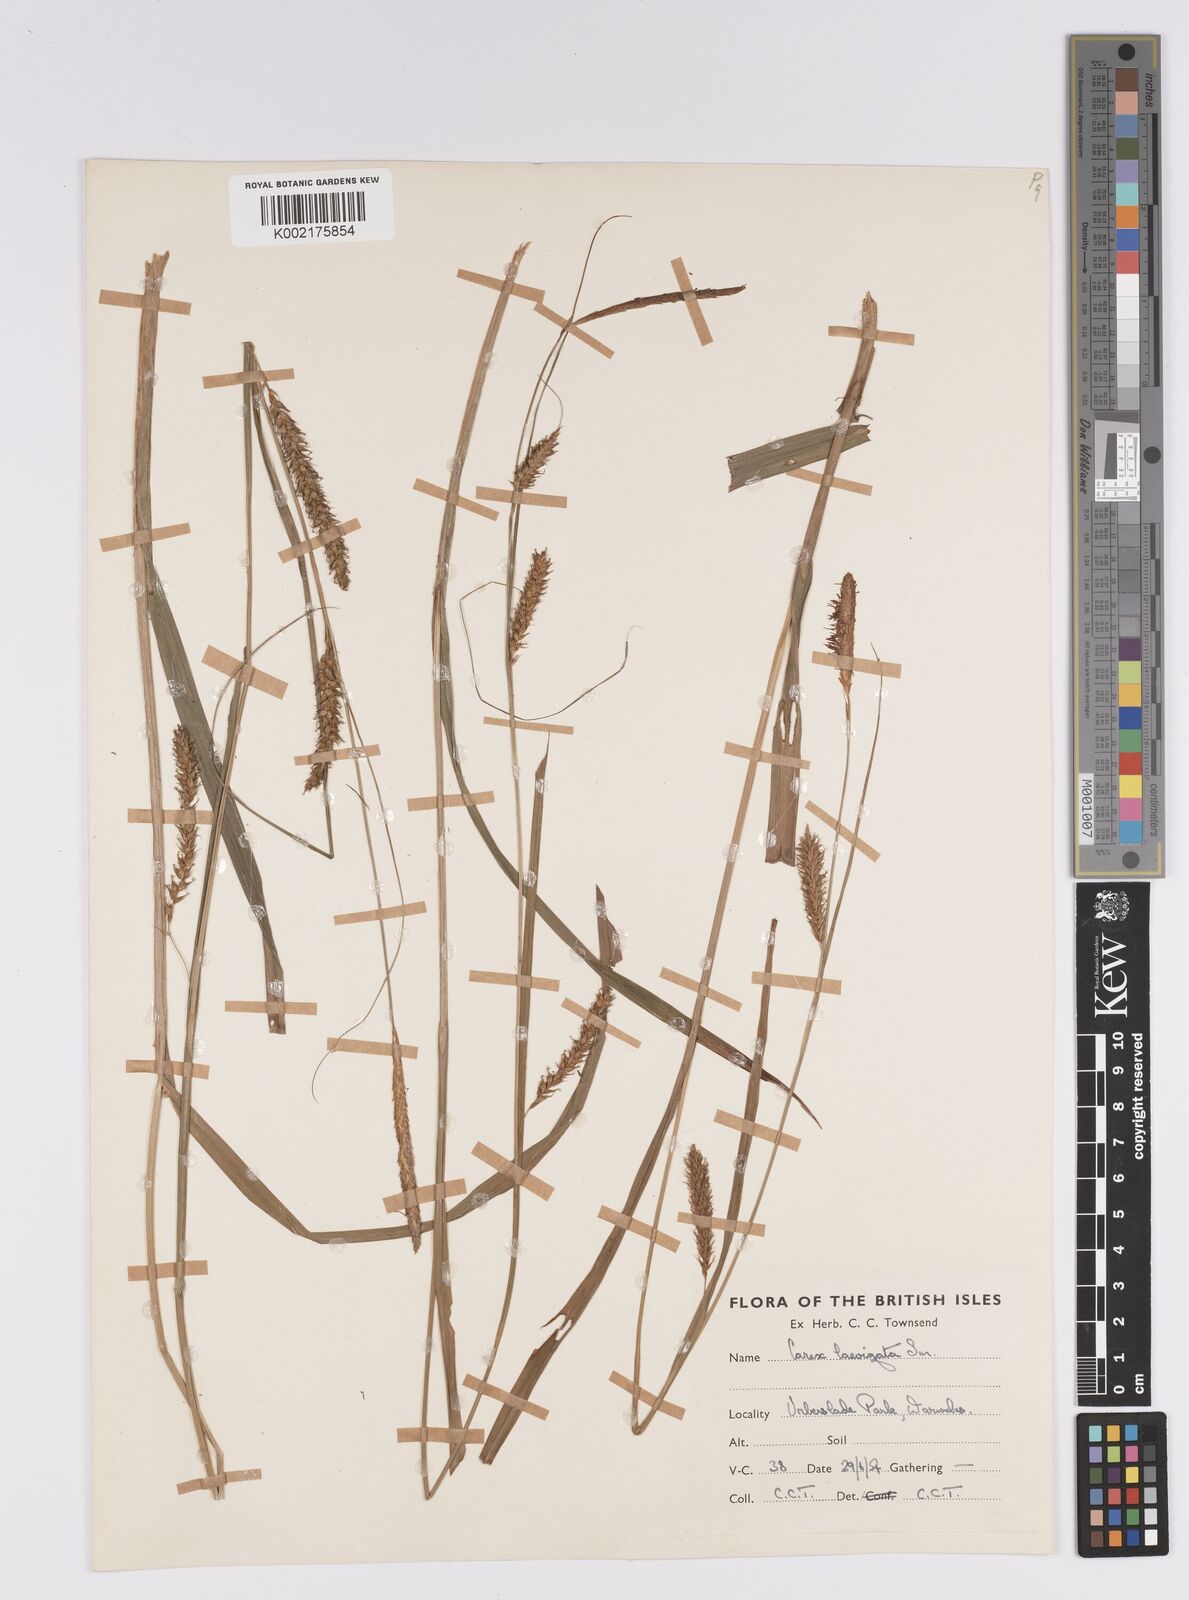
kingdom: Plantae
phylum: Tracheophyta
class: Liliopsida
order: Poales
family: Cyperaceae
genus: Carex
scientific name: Carex laevigata
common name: Smooth-stalked sedge
